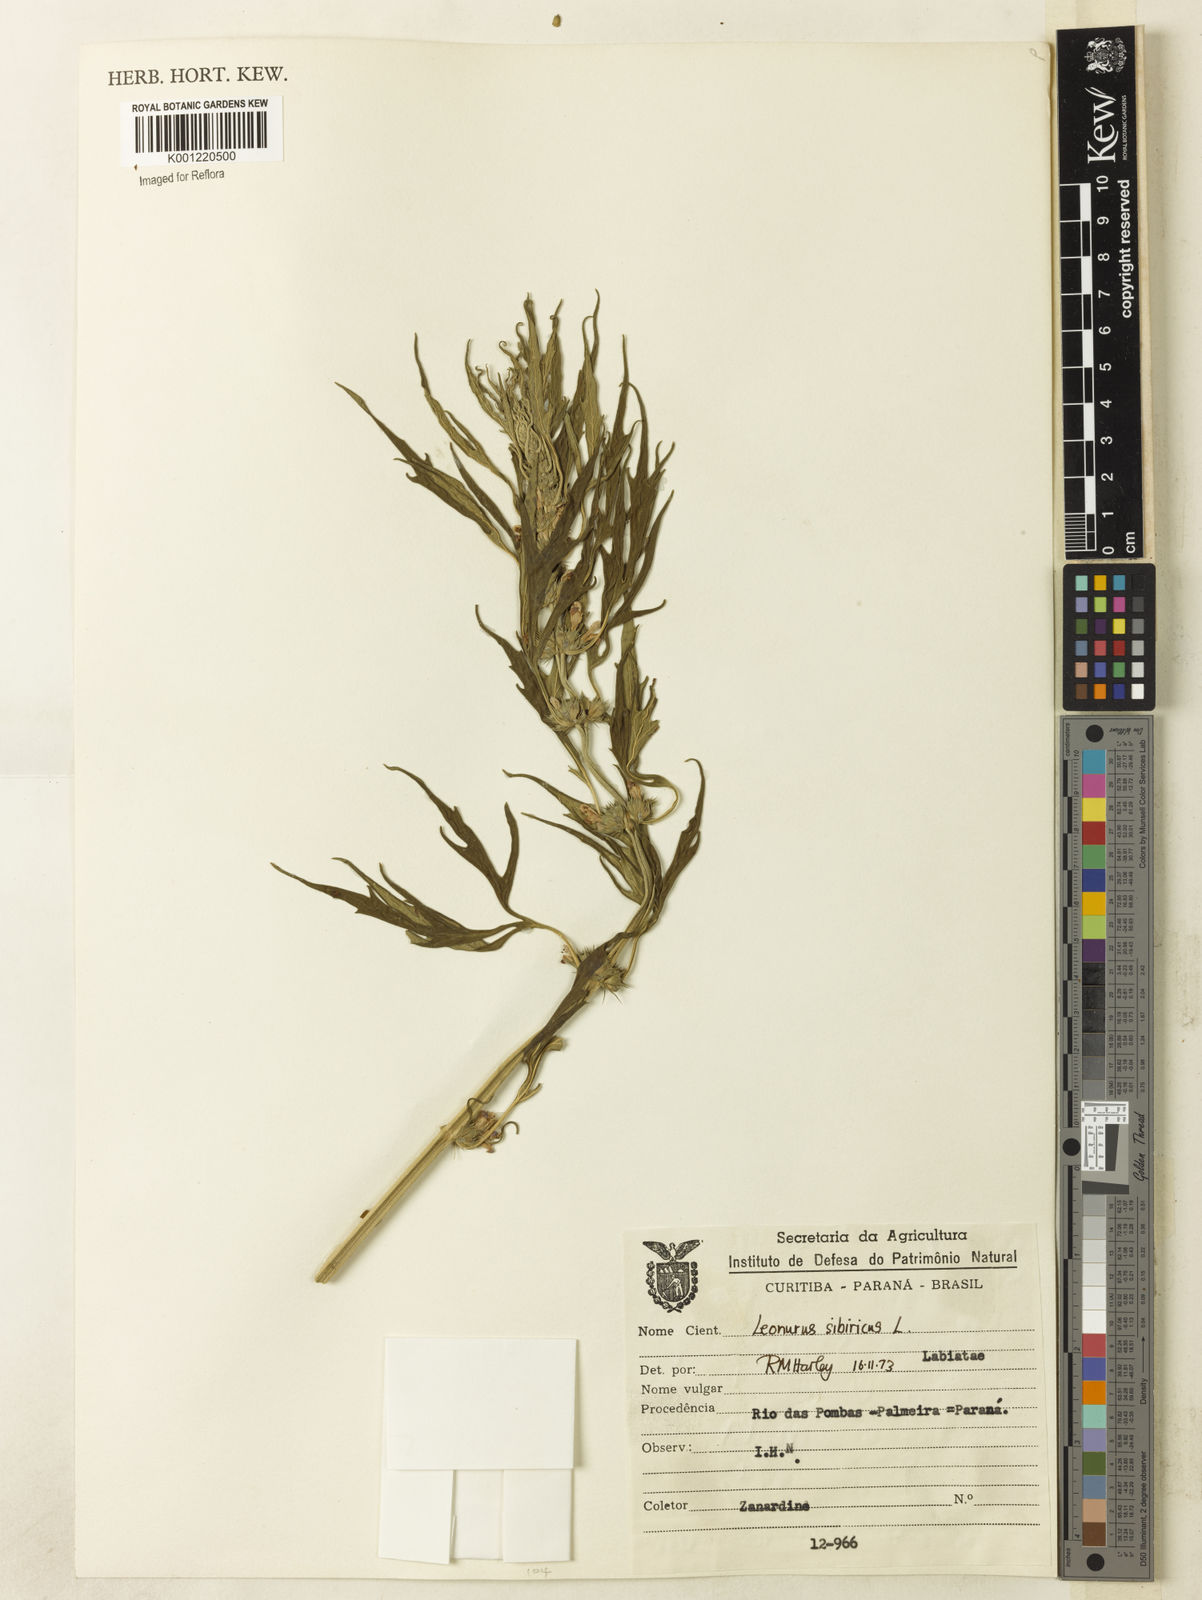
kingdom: Plantae
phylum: Tracheophyta
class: Magnoliopsida
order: Lamiales
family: Lamiaceae
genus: Leonurus
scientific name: Leonurus japonicus
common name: Honeyweed
